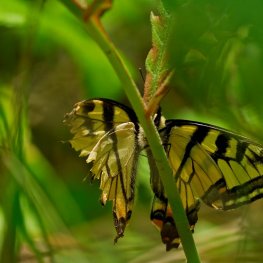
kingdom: Animalia
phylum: Arthropoda
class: Insecta
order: Lepidoptera
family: Papilionidae
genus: Pterourus
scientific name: Pterourus canadensis
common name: Canadian Tiger Swallowtail
